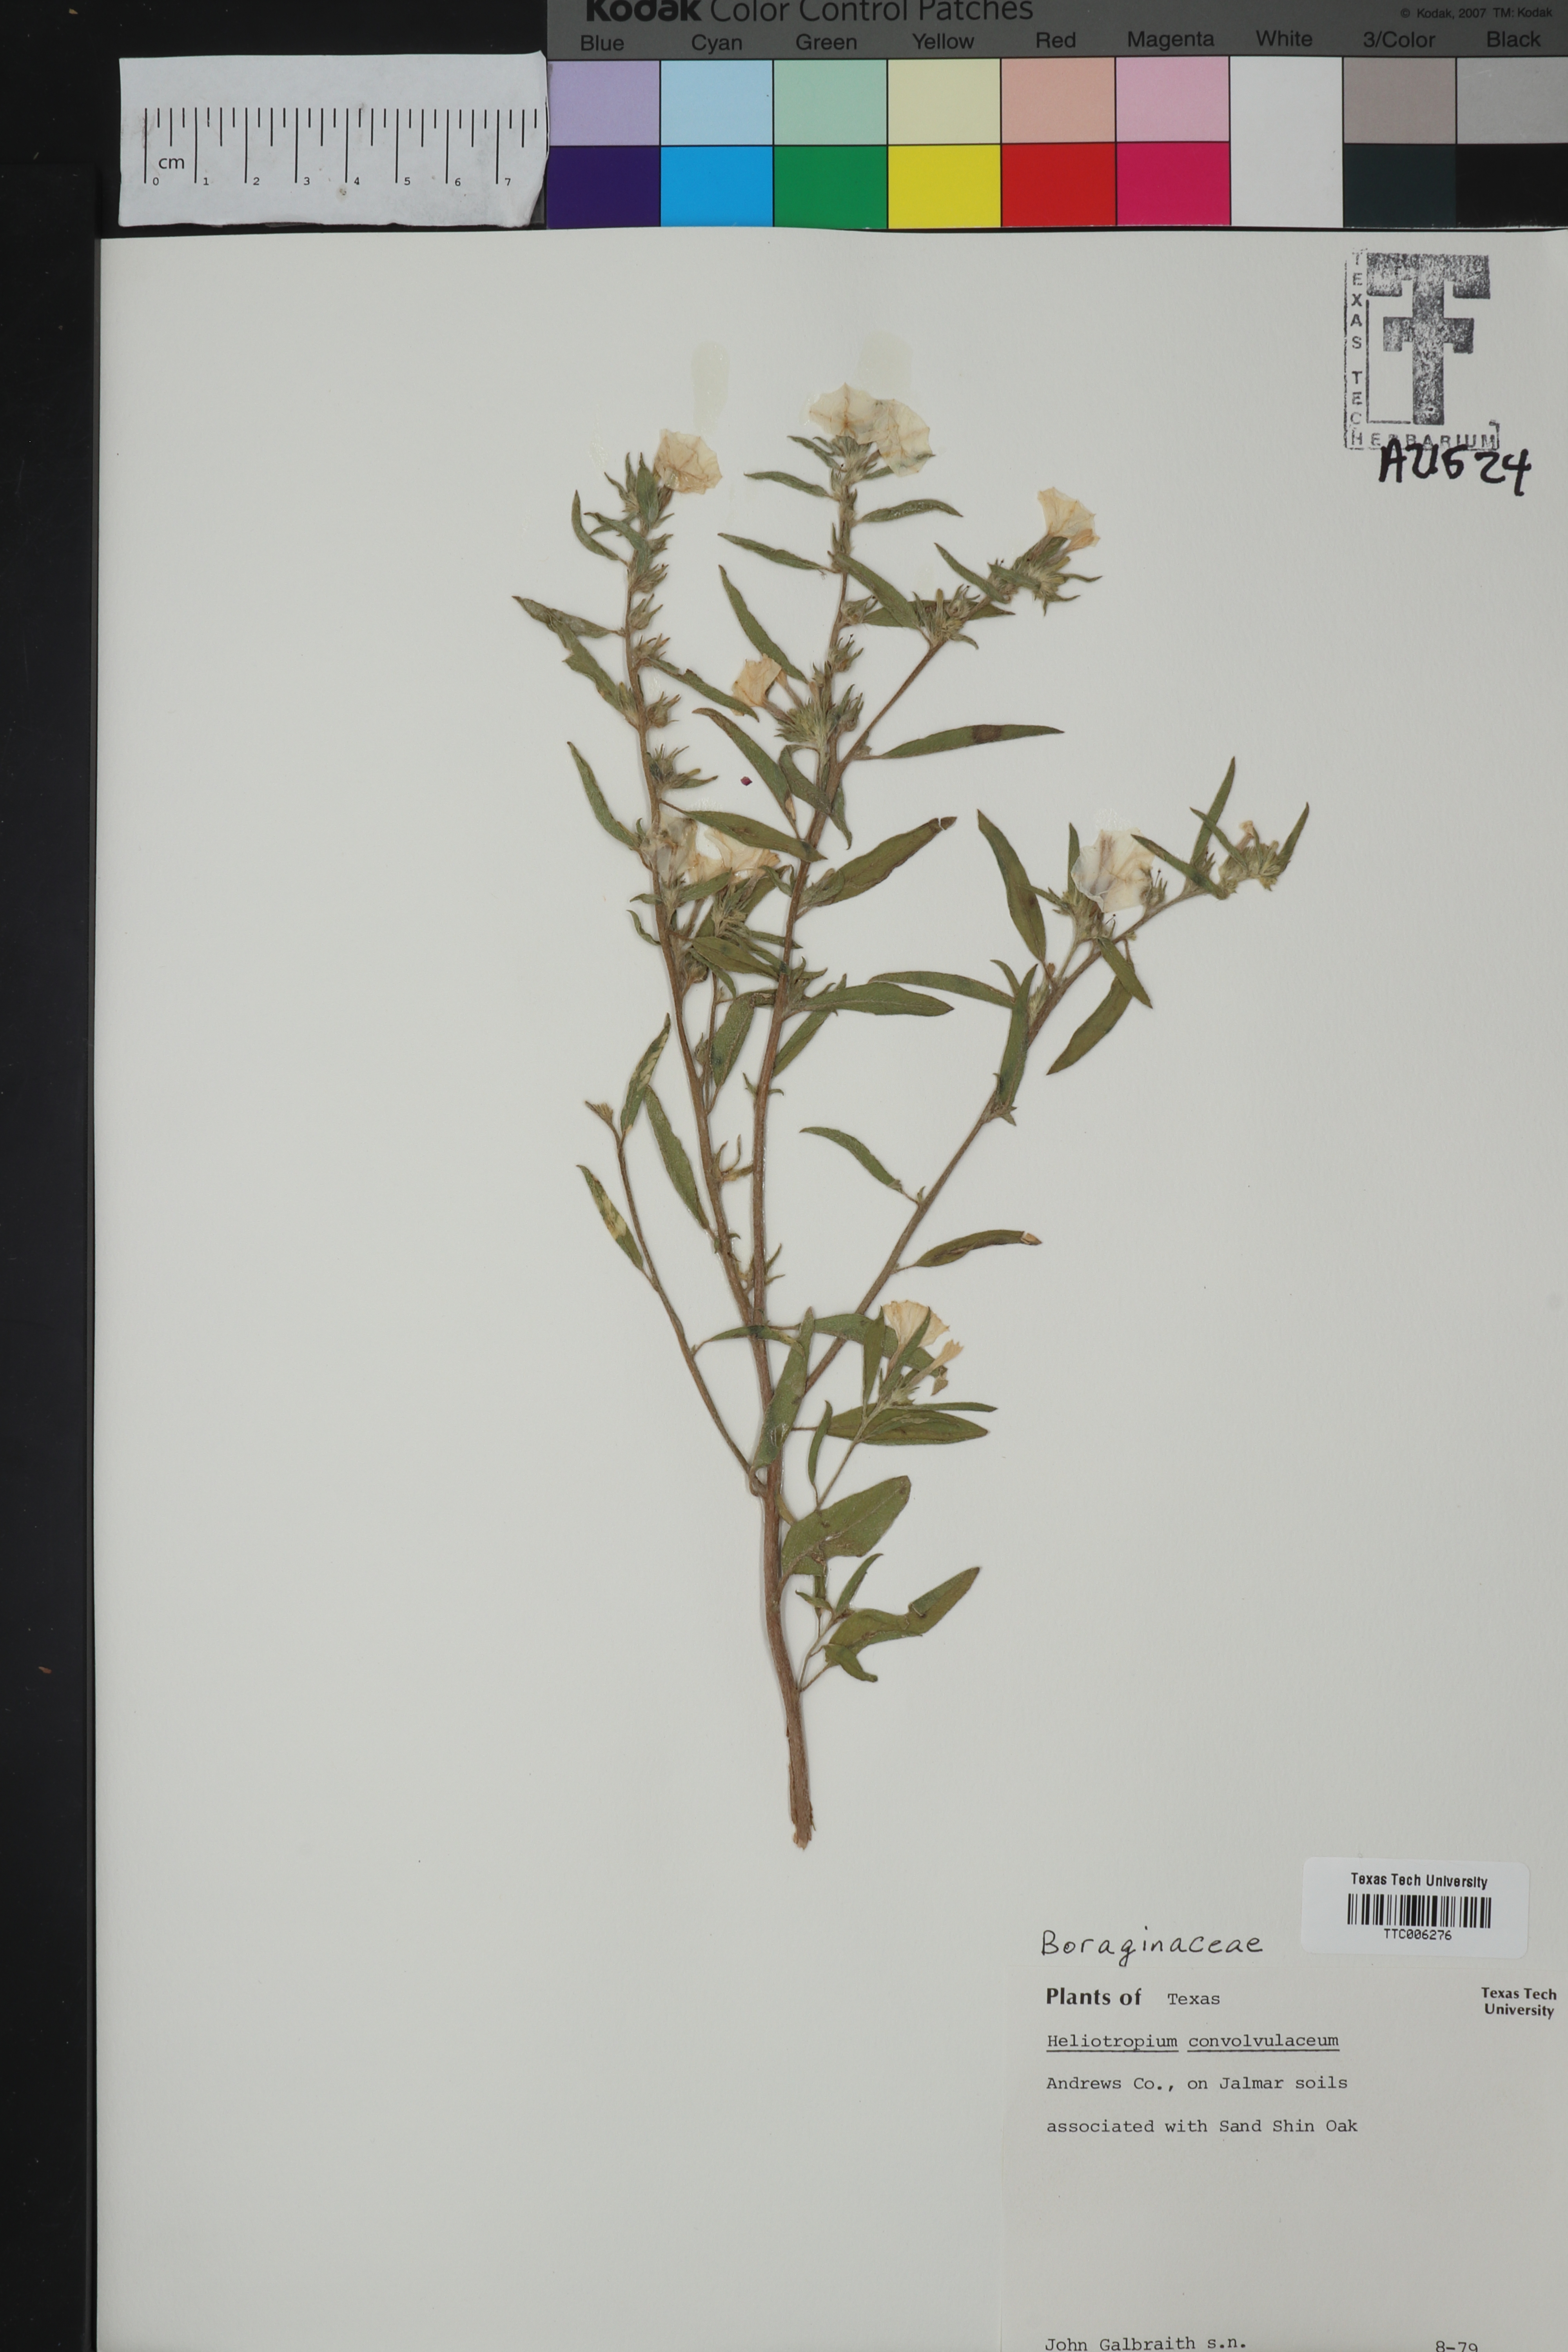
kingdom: Plantae
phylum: Tracheophyta
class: Magnoliopsida
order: Boraginales
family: Heliotropiaceae
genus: Euploca
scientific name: Euploca convolvulacea
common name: Bindweed heliotrope
